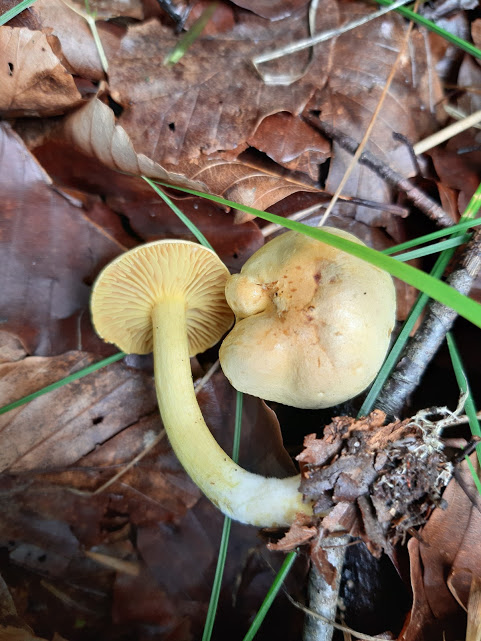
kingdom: Fungi
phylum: Basidiomycota
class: Agaricomycetes
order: Agaricales
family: Tricholomataceae
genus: Tricholoma
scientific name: Tricholoma sulphureum
